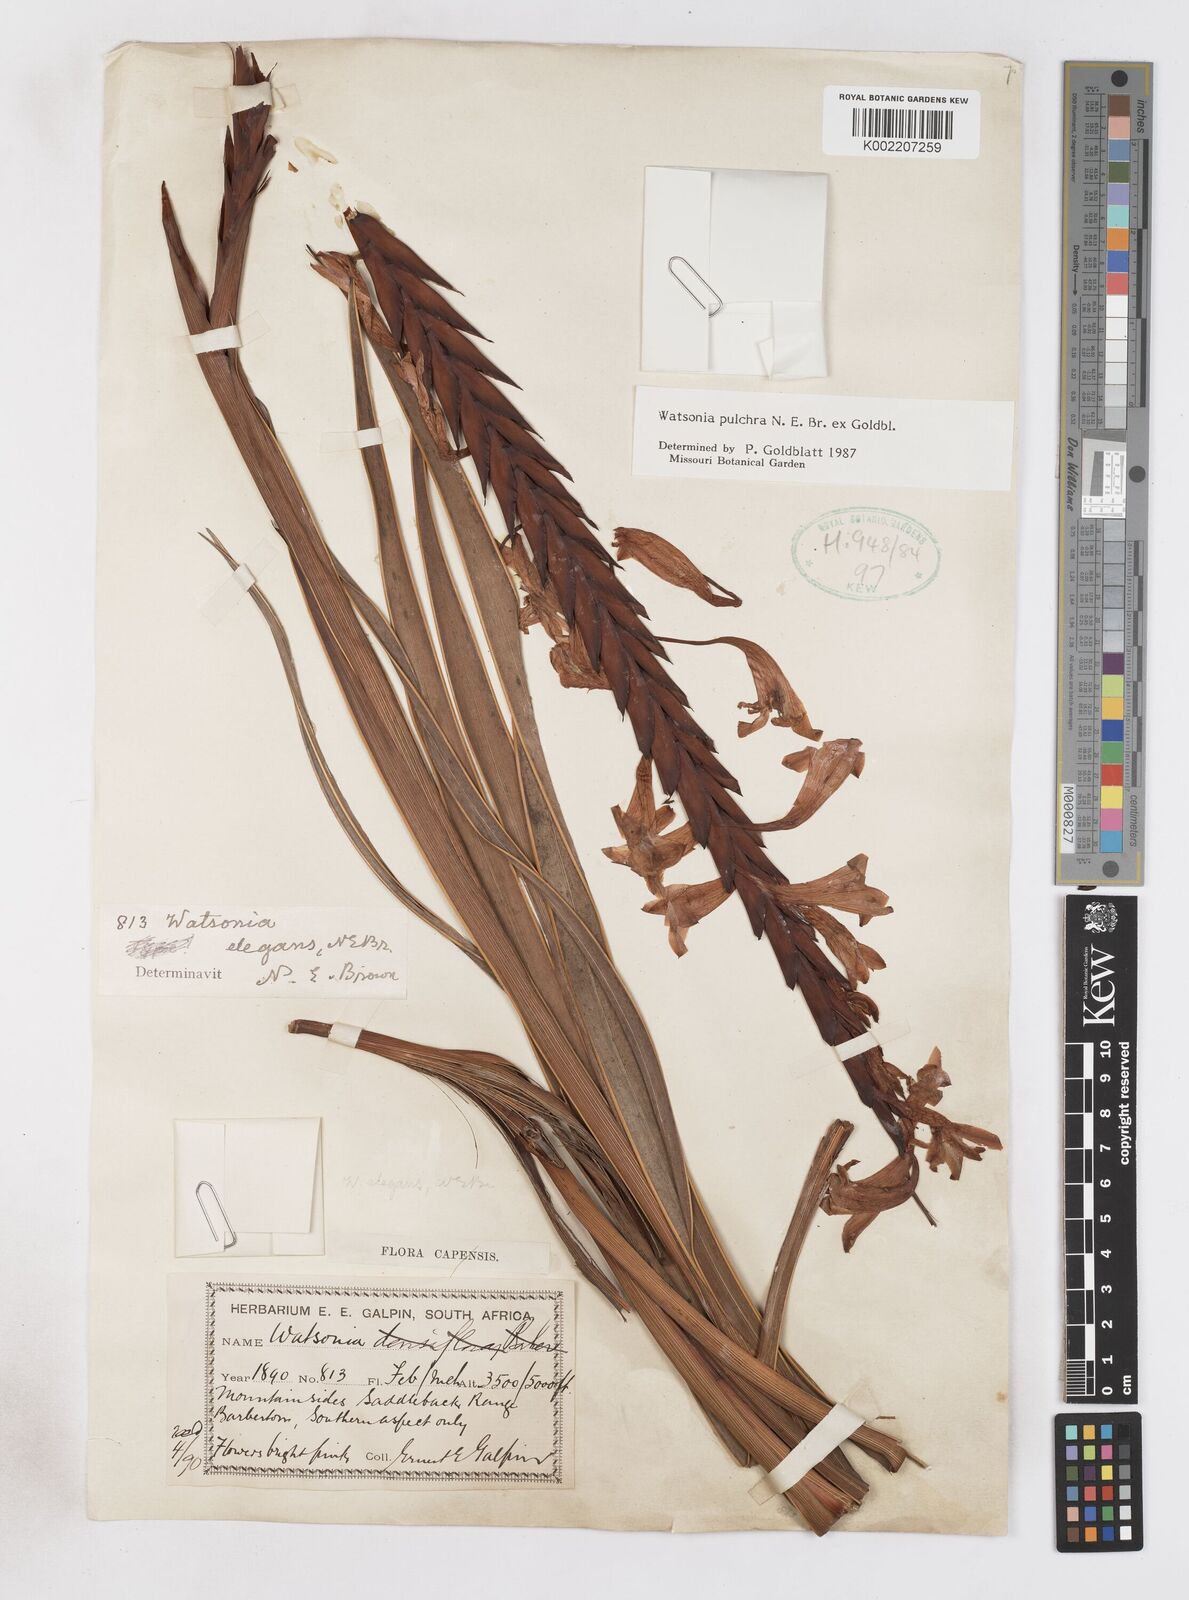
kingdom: Plantae
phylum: Tracheophyta
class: Liliopsida
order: Asparagales
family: Iridaceae
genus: Watsonia
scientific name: Watsonia pulchra
